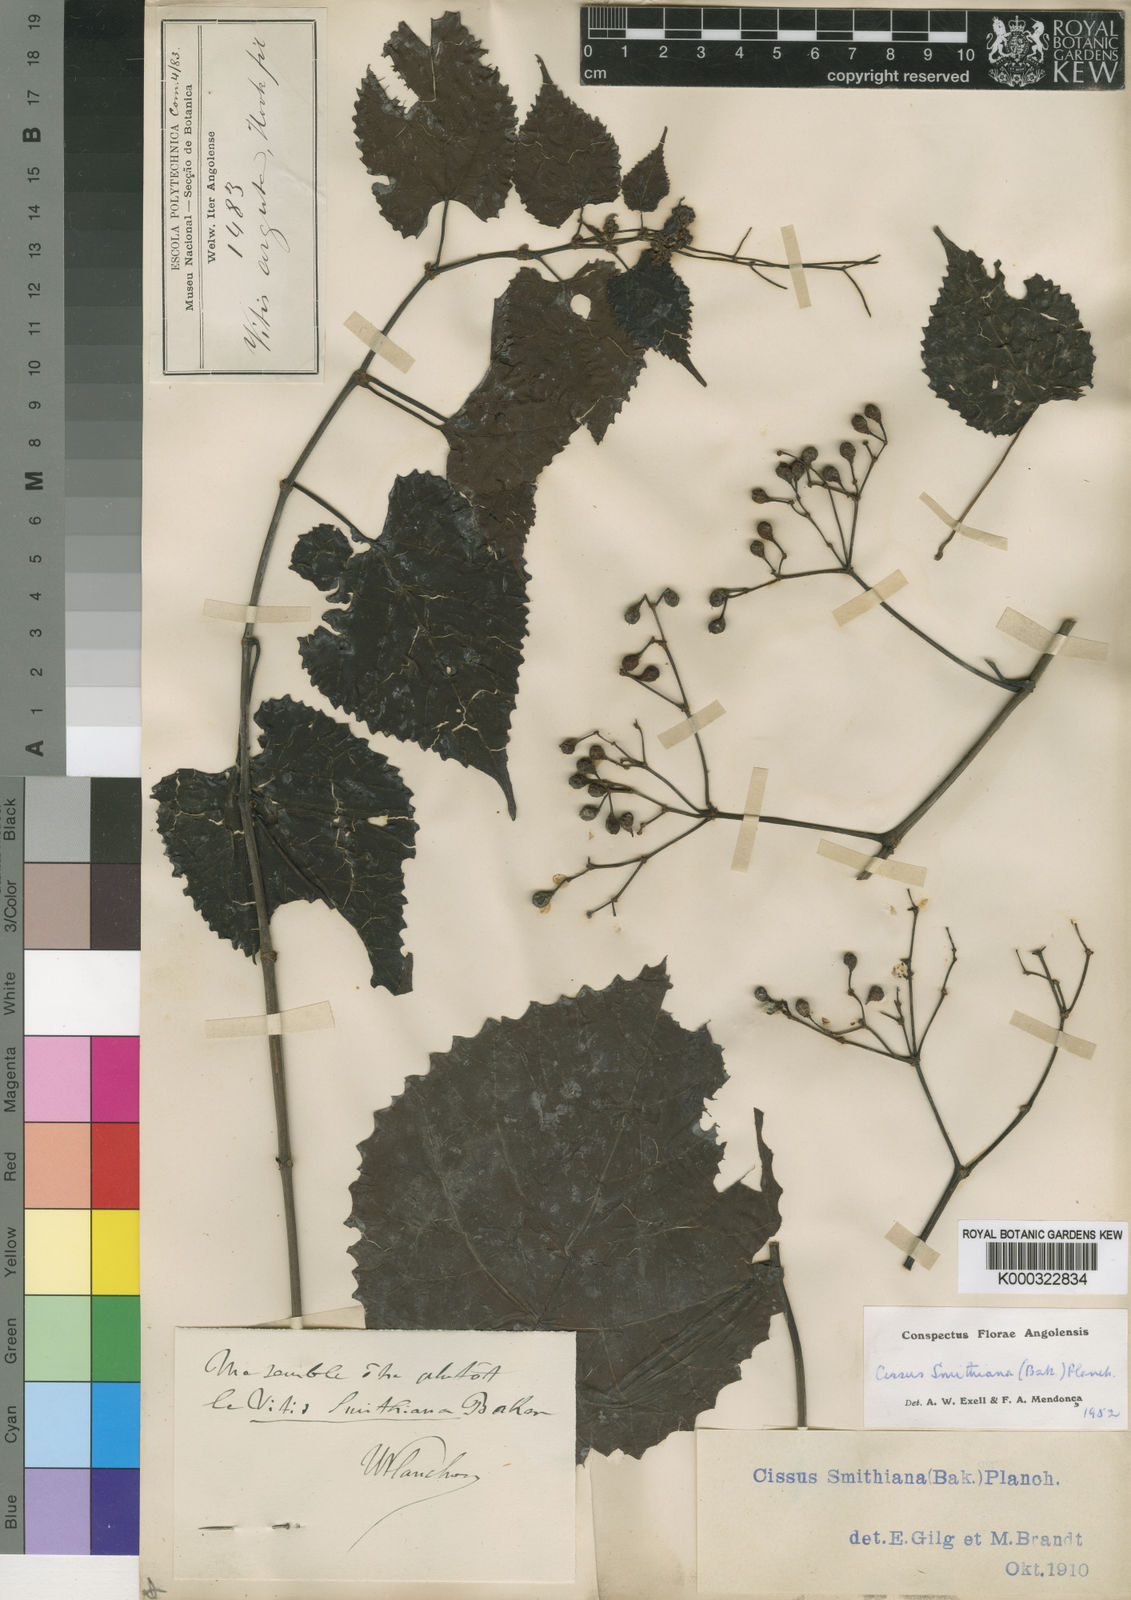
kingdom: Plantae
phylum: Tracheophyta
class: Magnoliopsida
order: Vitales
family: Vitaceae
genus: Cissus
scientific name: Cissus glaucophylla
